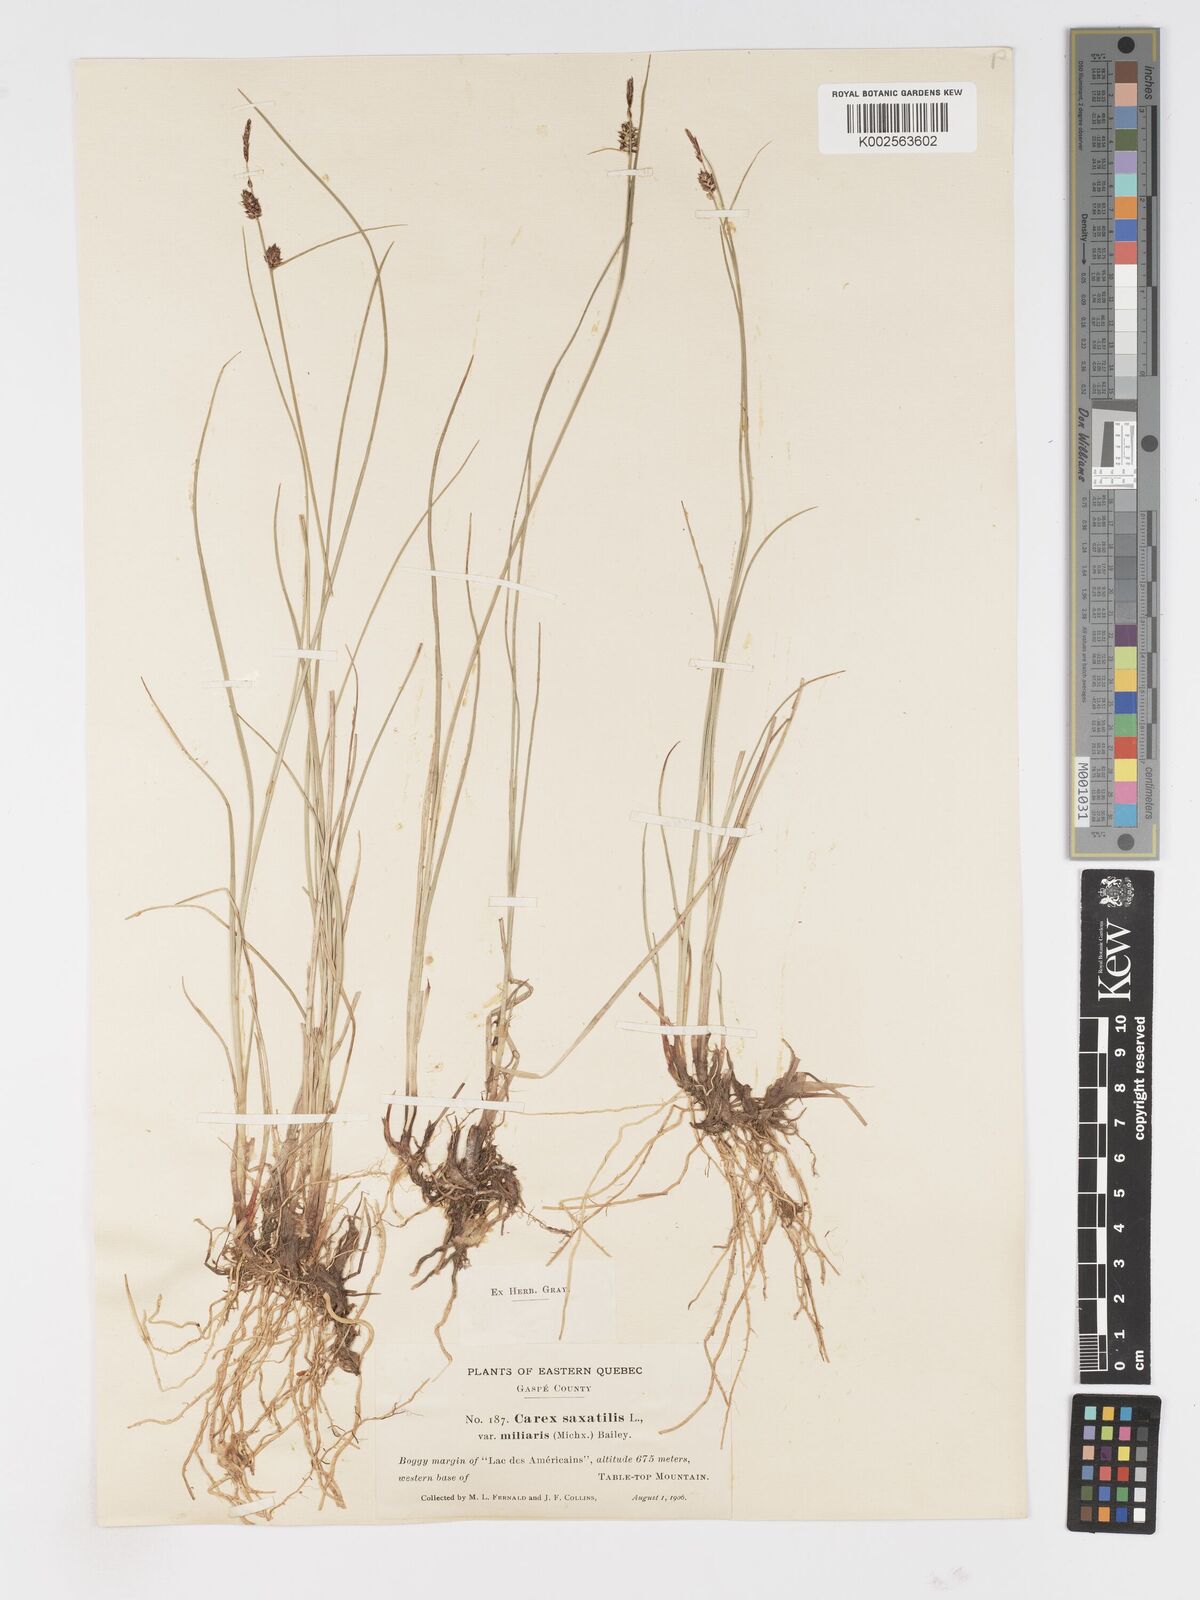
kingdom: Plantae
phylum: Tracheophyta
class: Liliopsida
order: Poales
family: Cyperaceae
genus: Carex
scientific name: Carex miliaris
